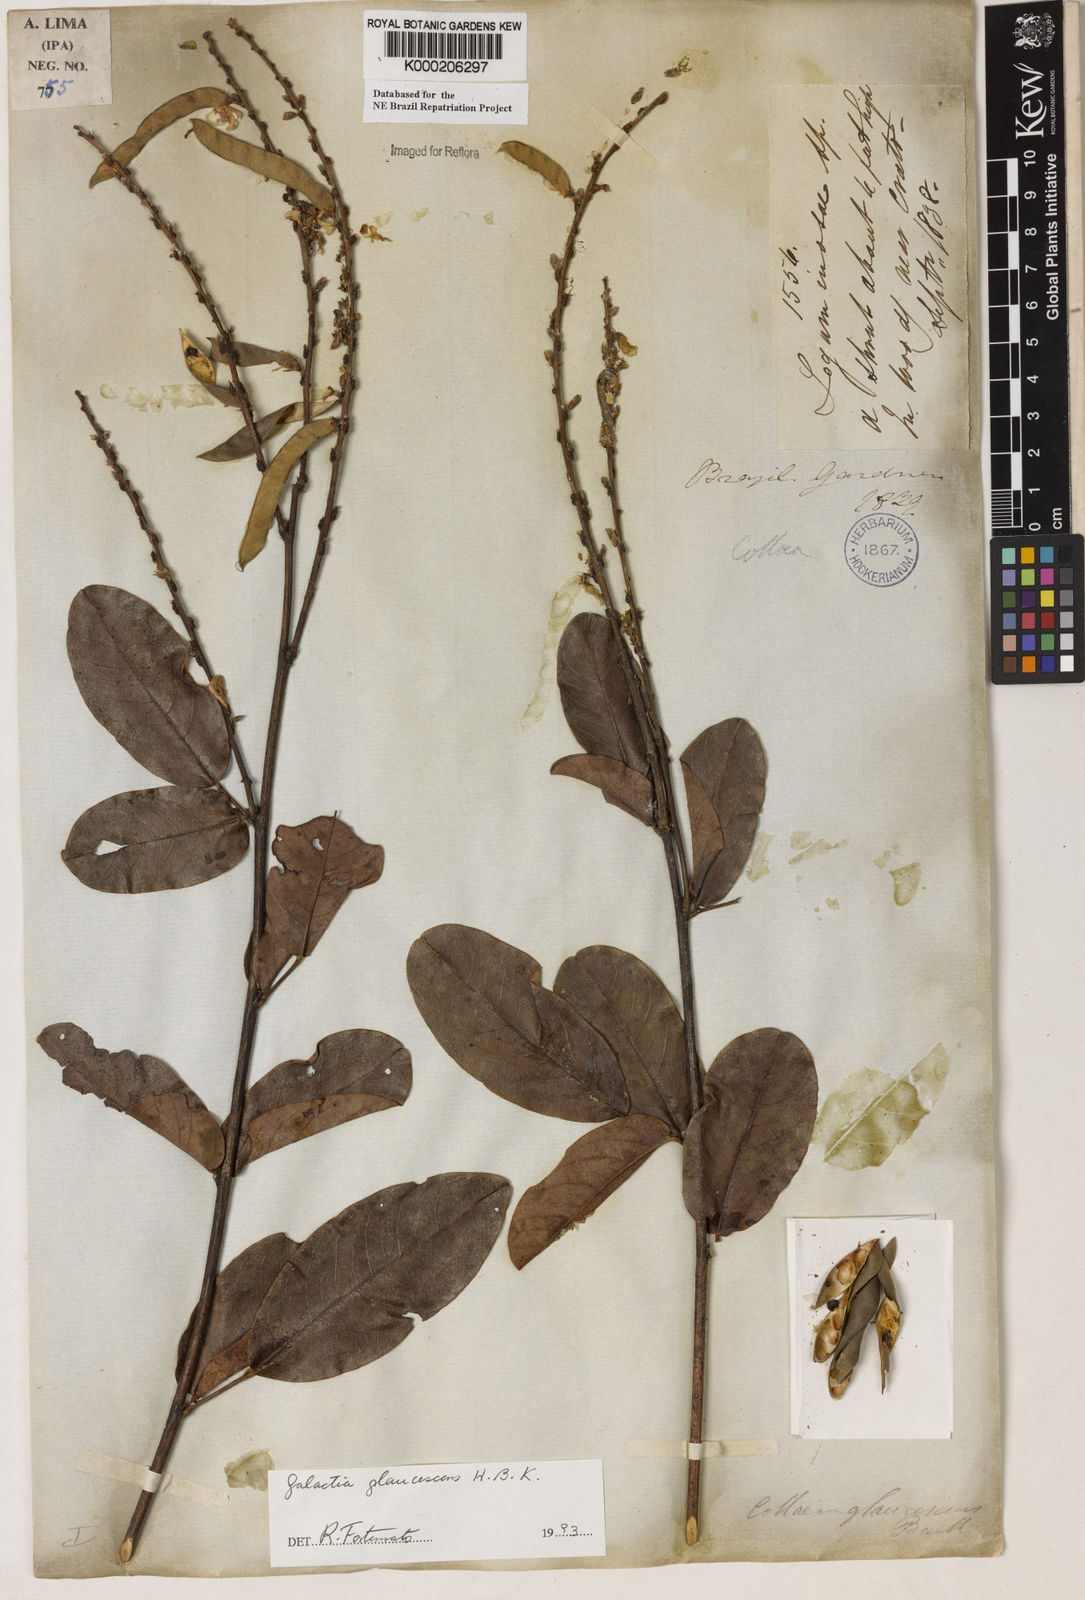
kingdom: Plantae
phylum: Tracheophyta
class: Magnoliopsida
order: Fabales
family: Fabaceae
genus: Galactia
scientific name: Galactia glaucescens
